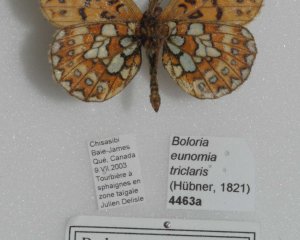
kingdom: Animalia
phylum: Arthropoda
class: Insecta
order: Lepidoptera
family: Nymphalidae
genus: Boloria
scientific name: Boloria eunomia
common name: Bog Fritillary
